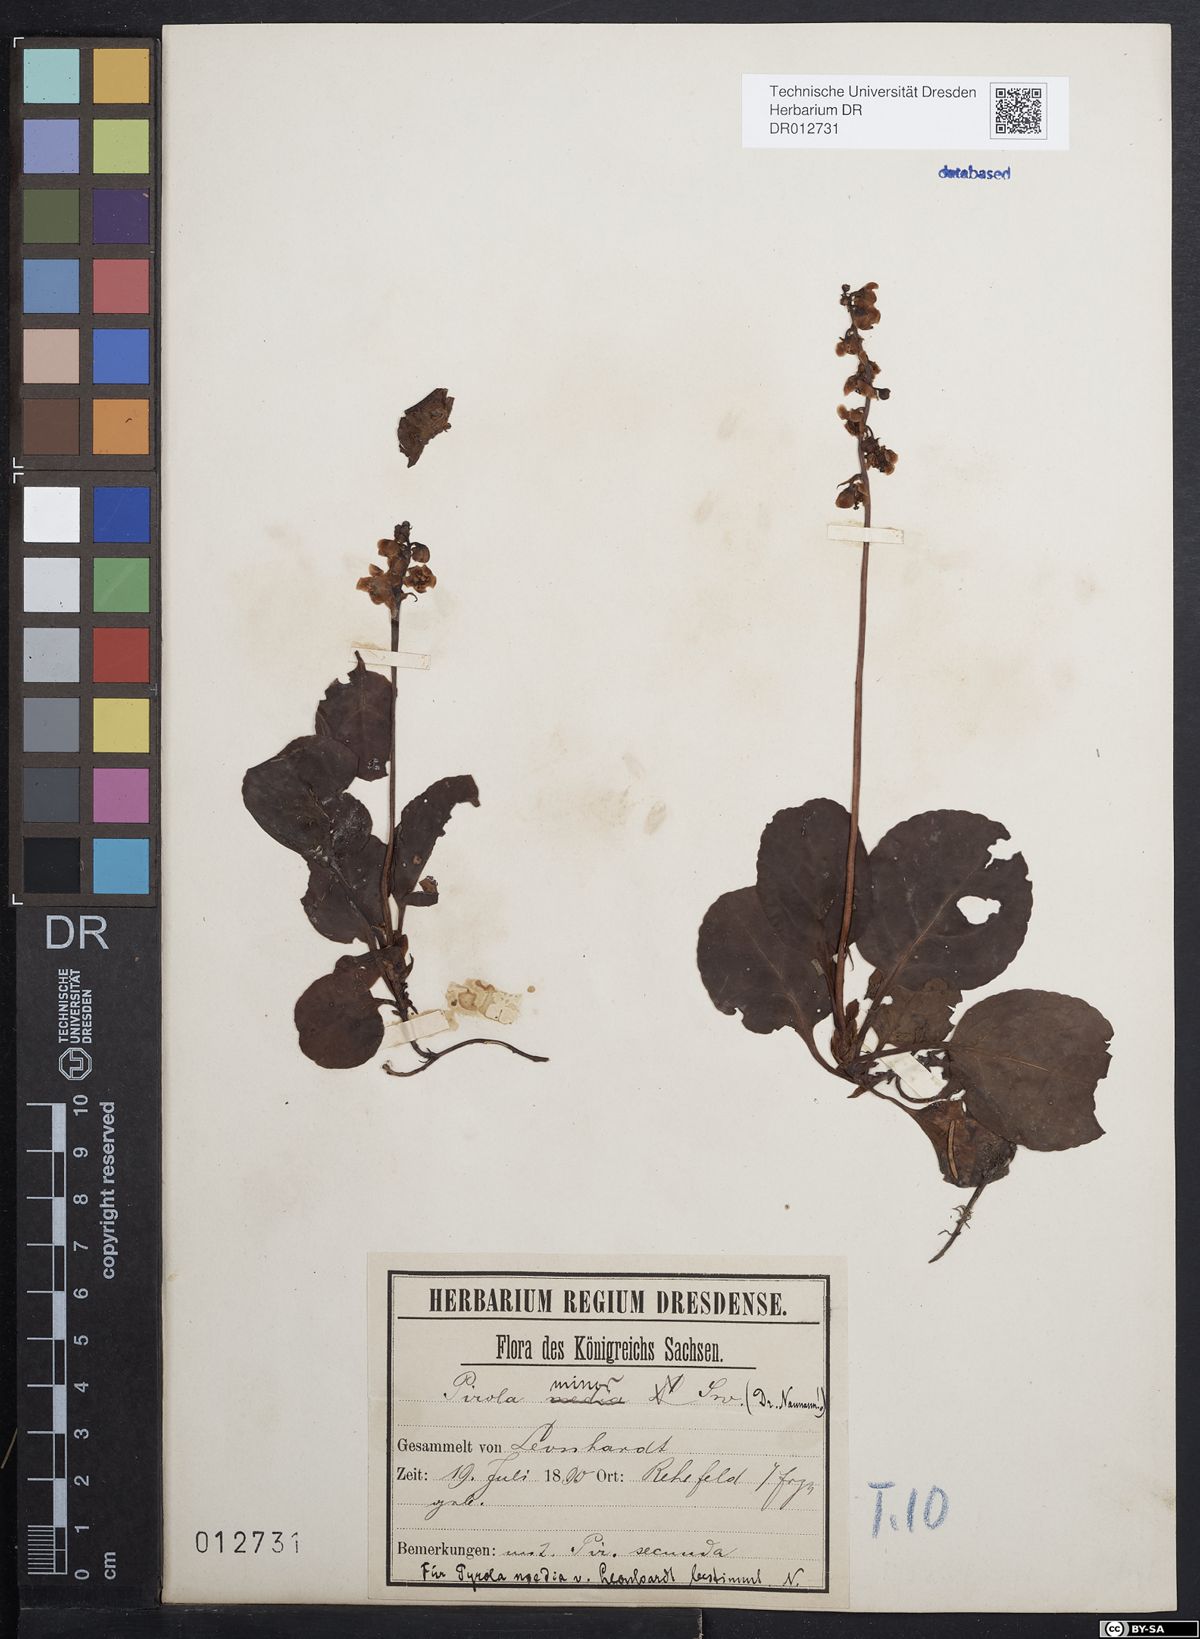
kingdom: Plantae
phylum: Tracheophyta
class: Magnoliopsida
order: Ericales
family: Ericaceae
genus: Pyrola
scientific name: Pyrola minor
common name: Common wintergreen
